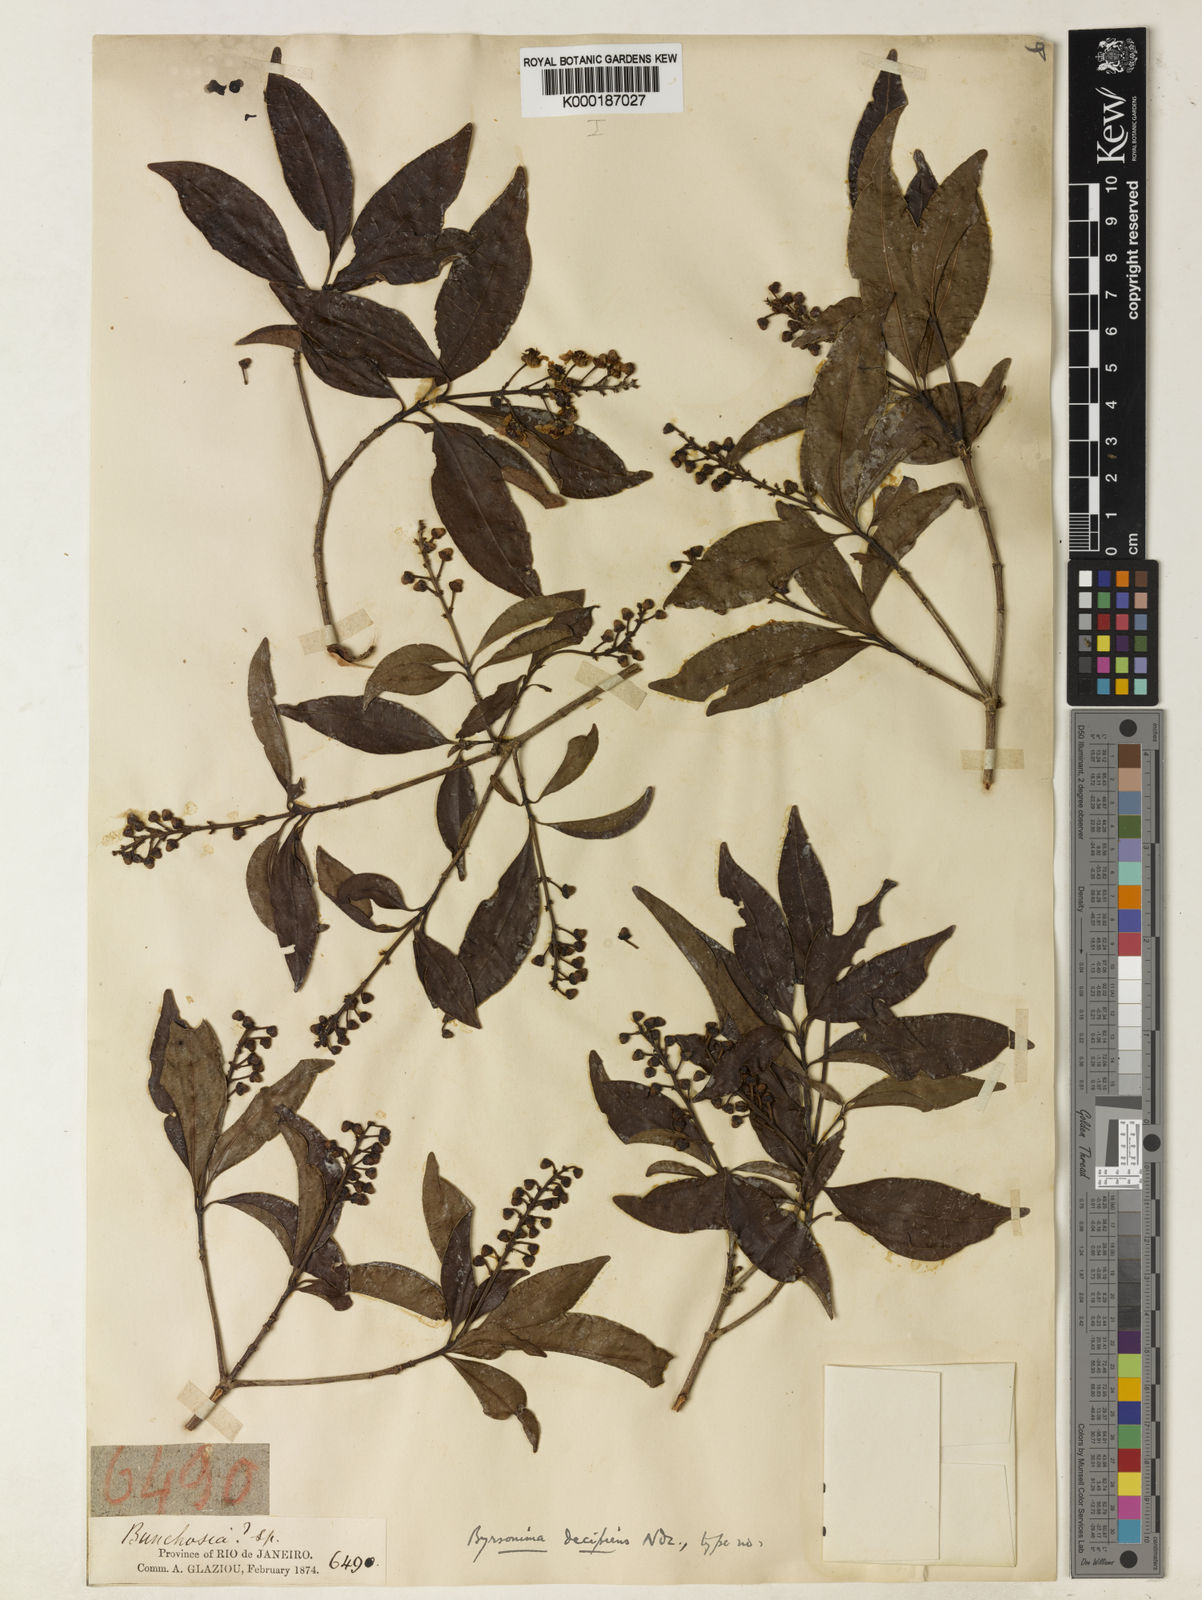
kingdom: Plantae
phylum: Tracheophyta
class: Magnoliopsida
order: Malpighiales
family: Malpighiaceae
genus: Byrsonima
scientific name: Byrsonima myricifolia
